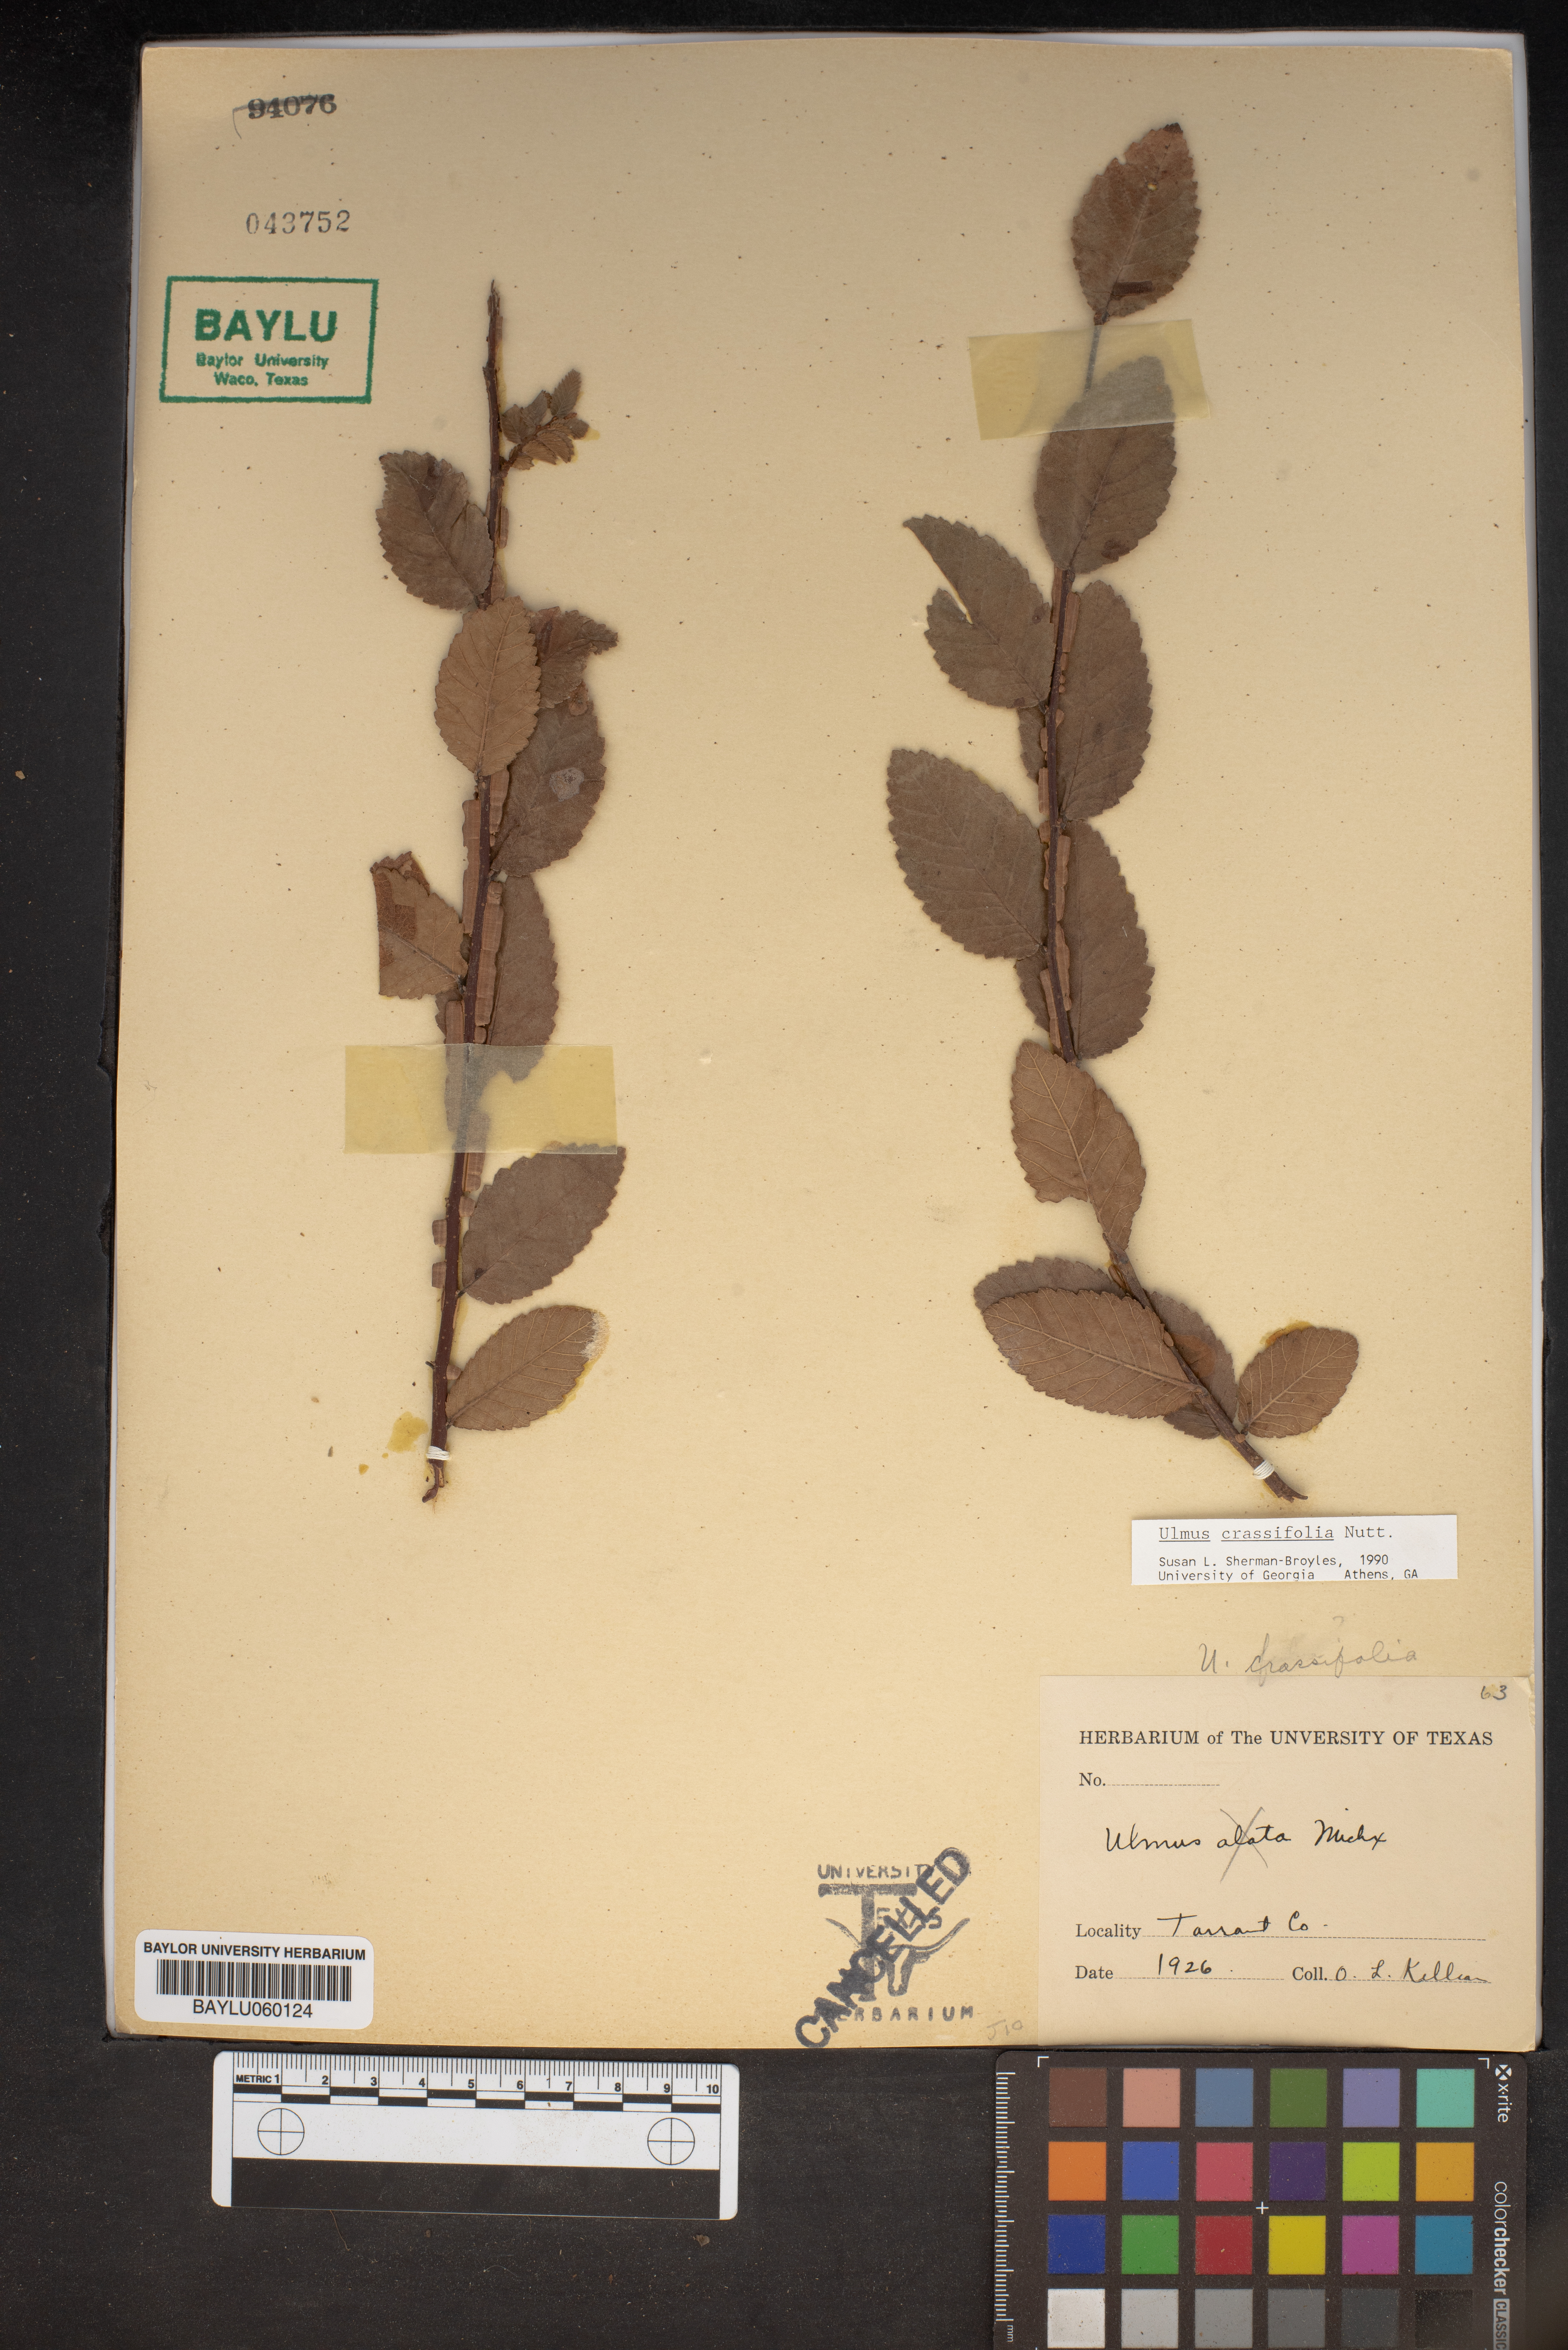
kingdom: Plantae
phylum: Tracheophyta
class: Magnoliopsida
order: Rosales
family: Ulmaceae
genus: Ulmus
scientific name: Ulmus crassifolia
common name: Basket elm
